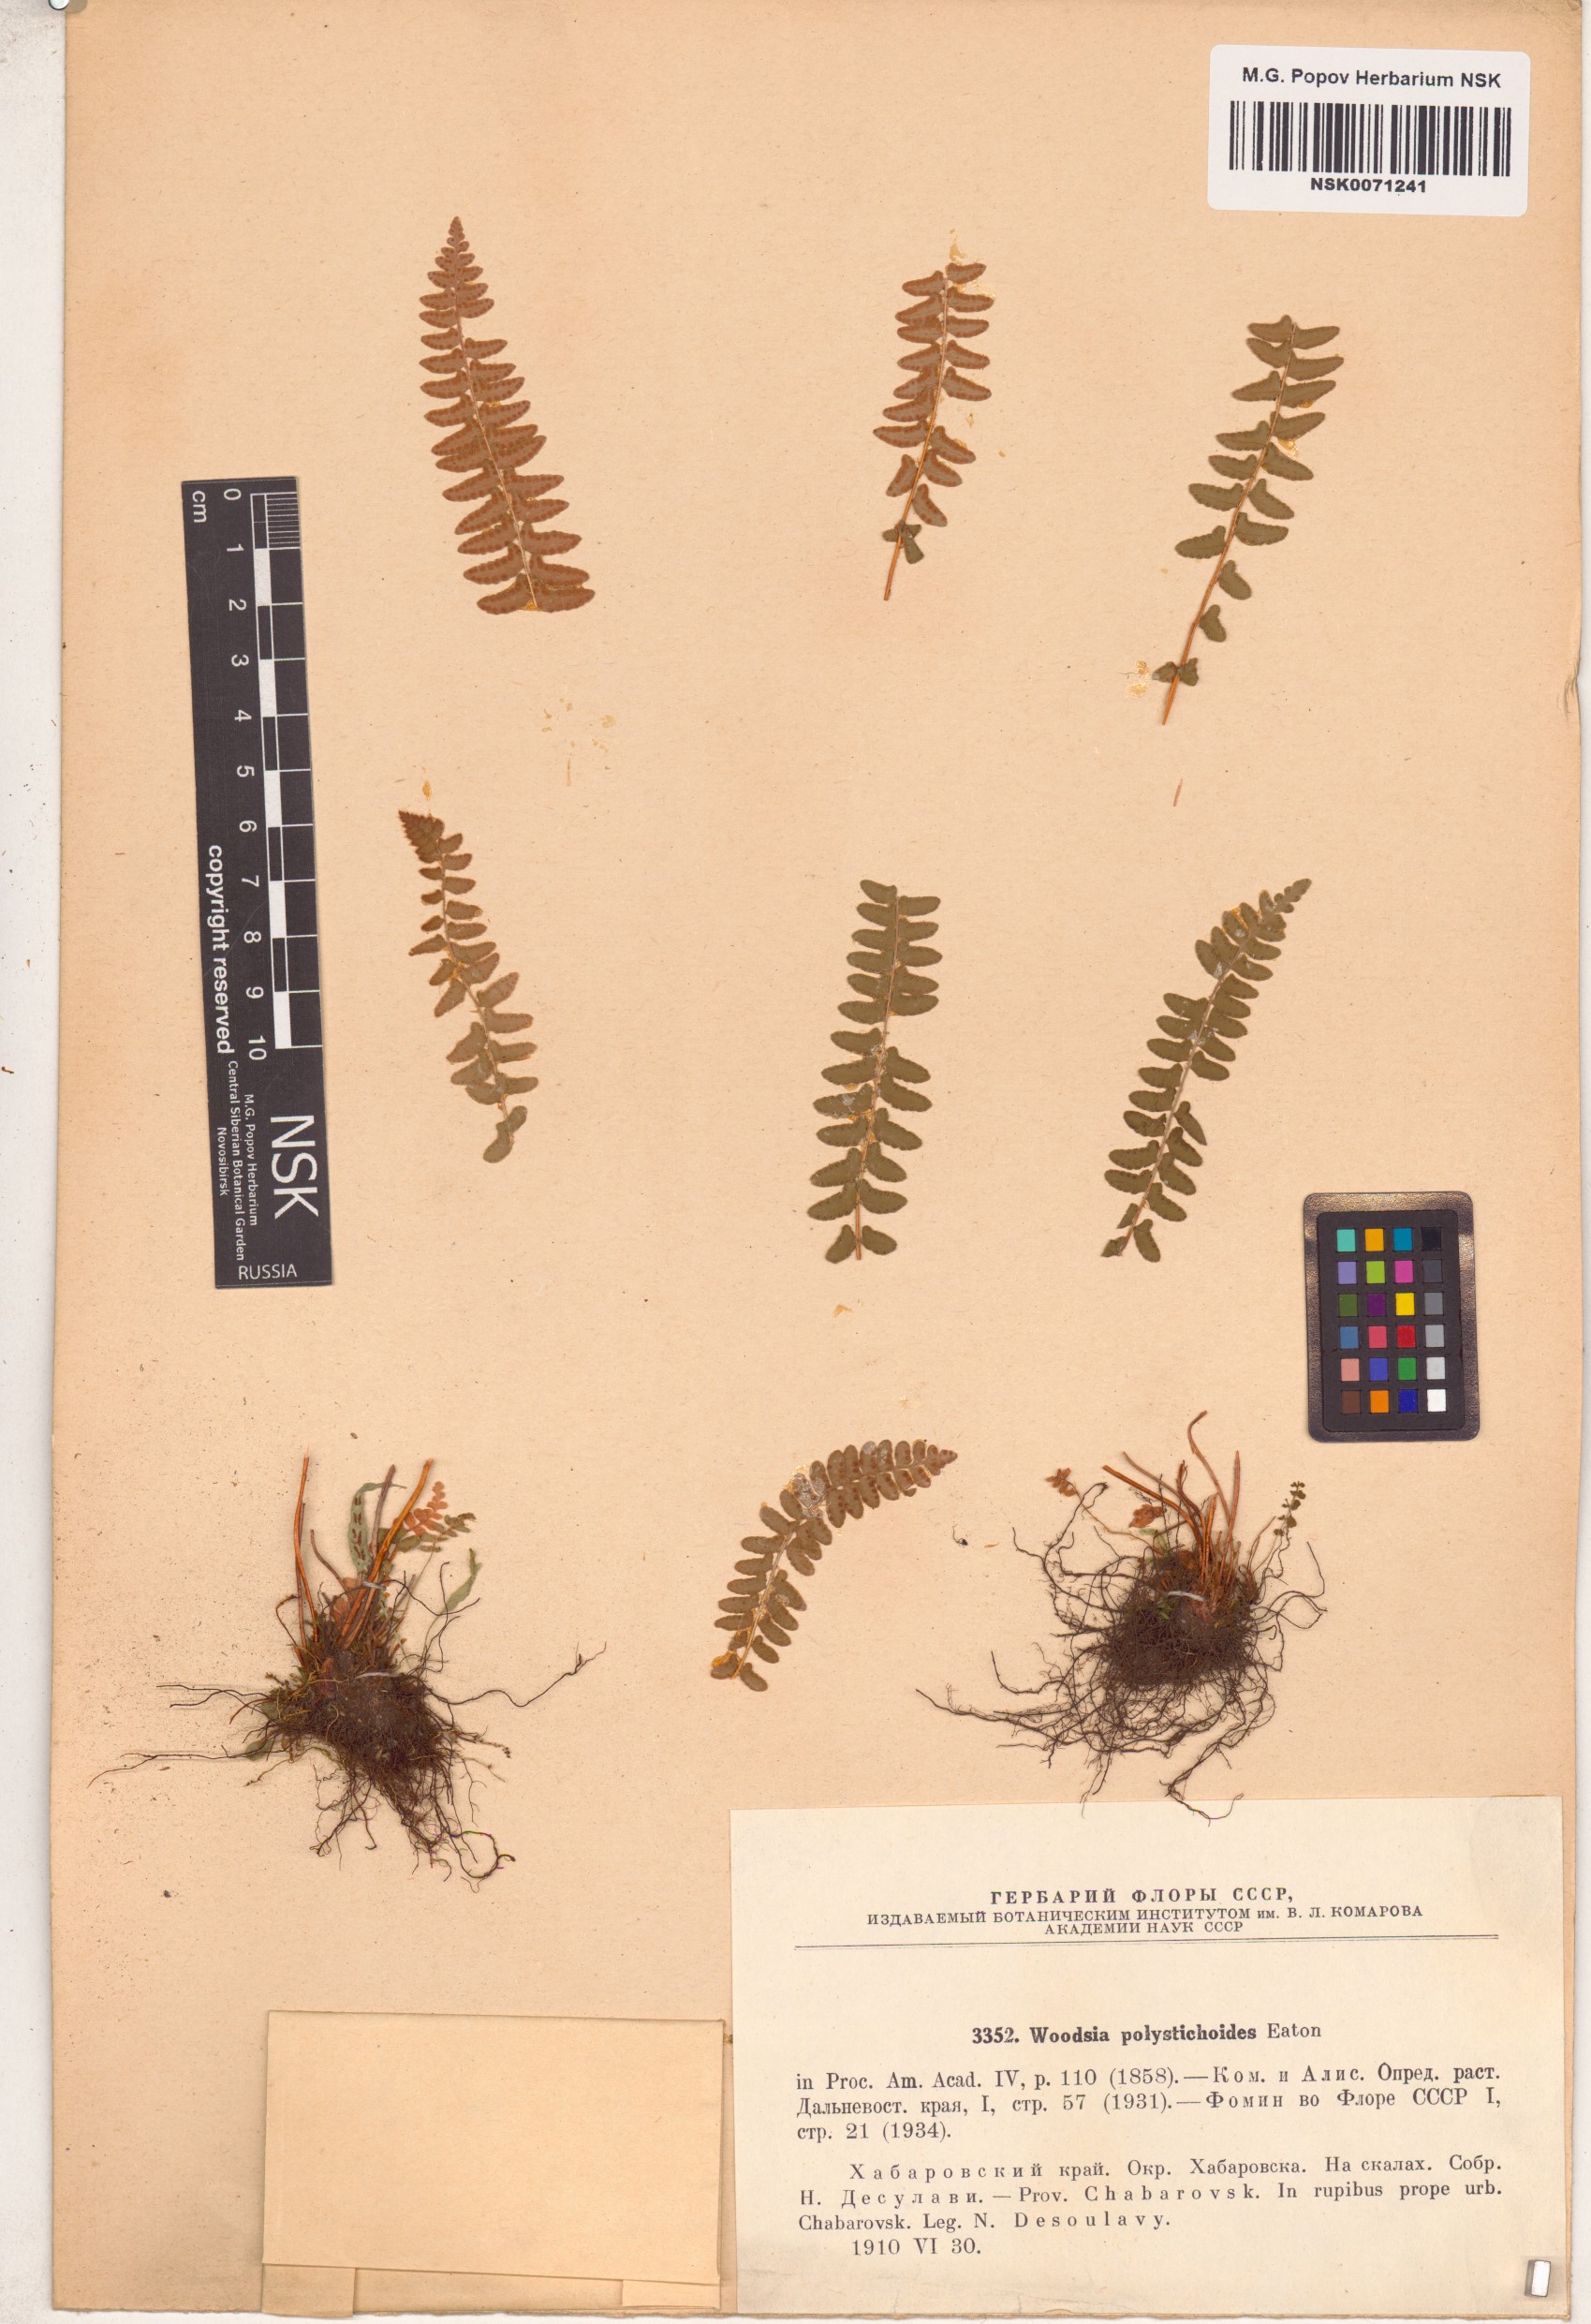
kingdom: Plantae
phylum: Tracheophyta
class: Polypodiopsida
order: Polypodiales
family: Woodsiaceae
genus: Woodsia
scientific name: Woodsia polystichoides
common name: Holly fern woodsia
